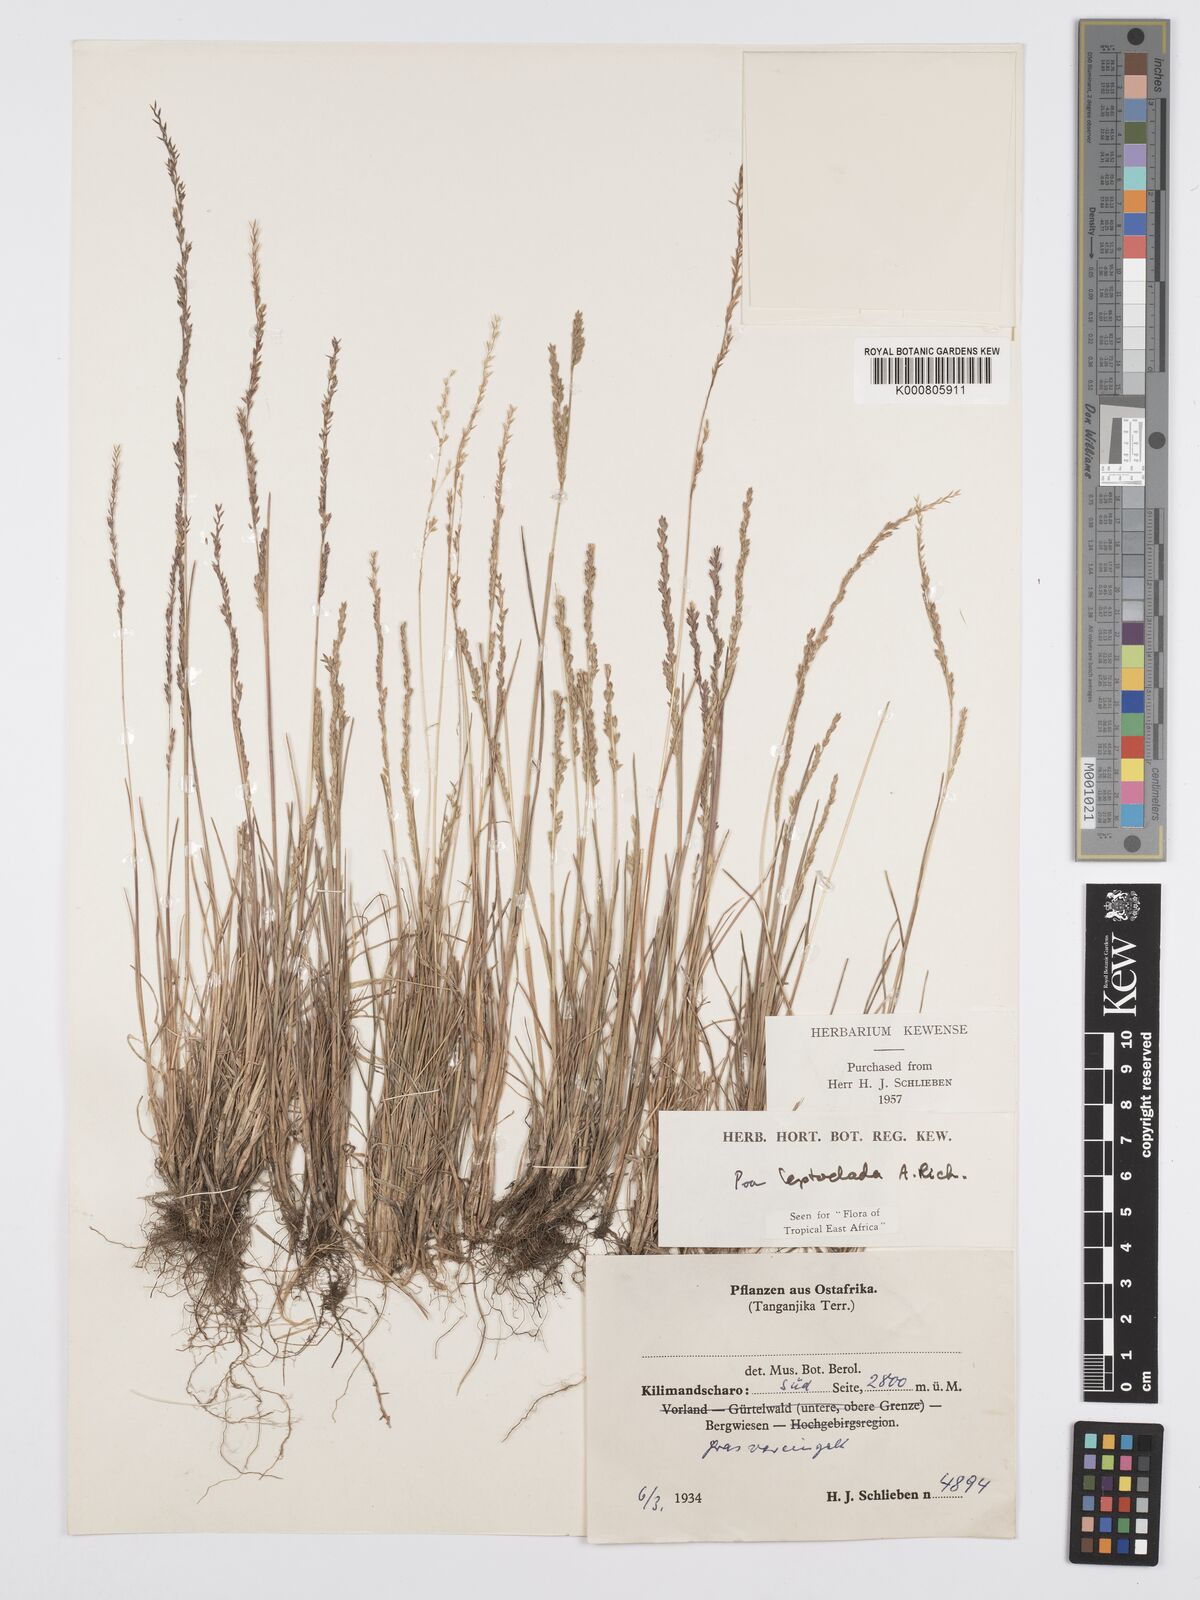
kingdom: Plantae
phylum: Tracheophyta
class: Liliopsida
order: Poales
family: Poaceae
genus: Poa
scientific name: Poa leptoclada
